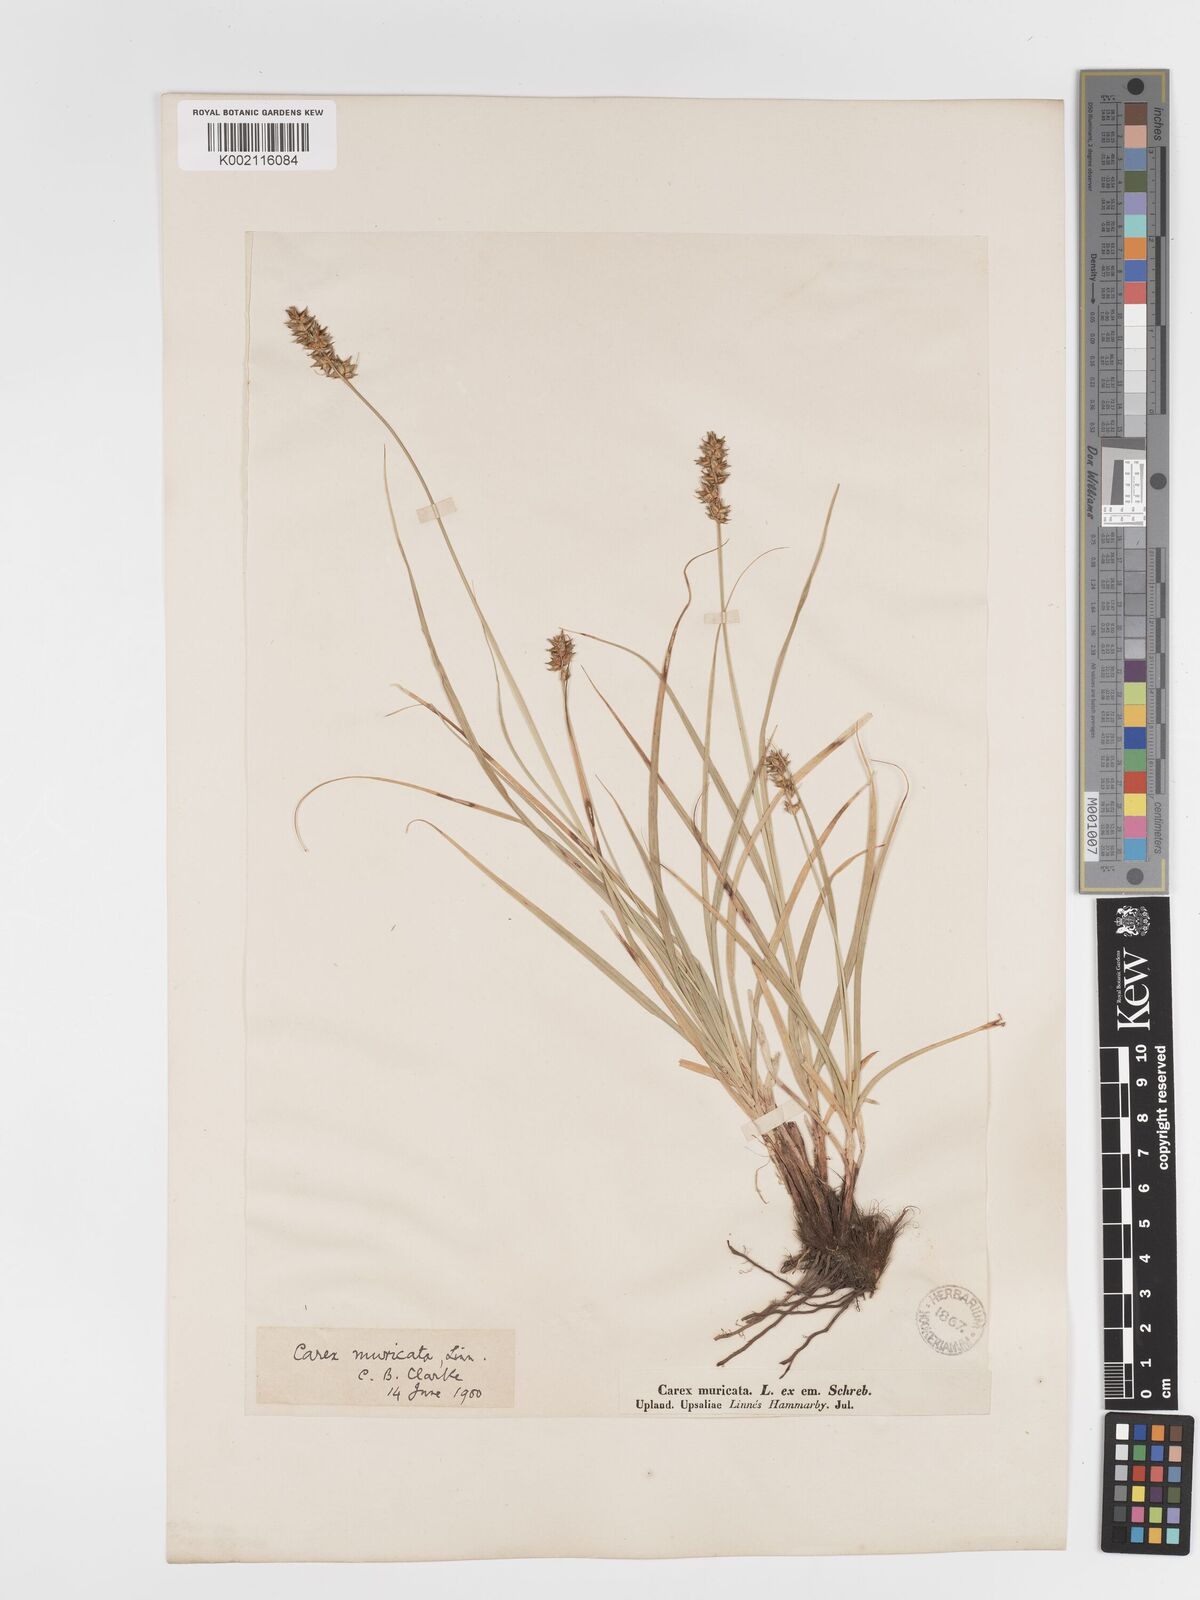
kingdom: Plantae
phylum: Tracheophyta
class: Liliopsida
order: Poales
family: Cyperaceae
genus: Carex
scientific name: Carex spicata
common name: Spiked sedge
